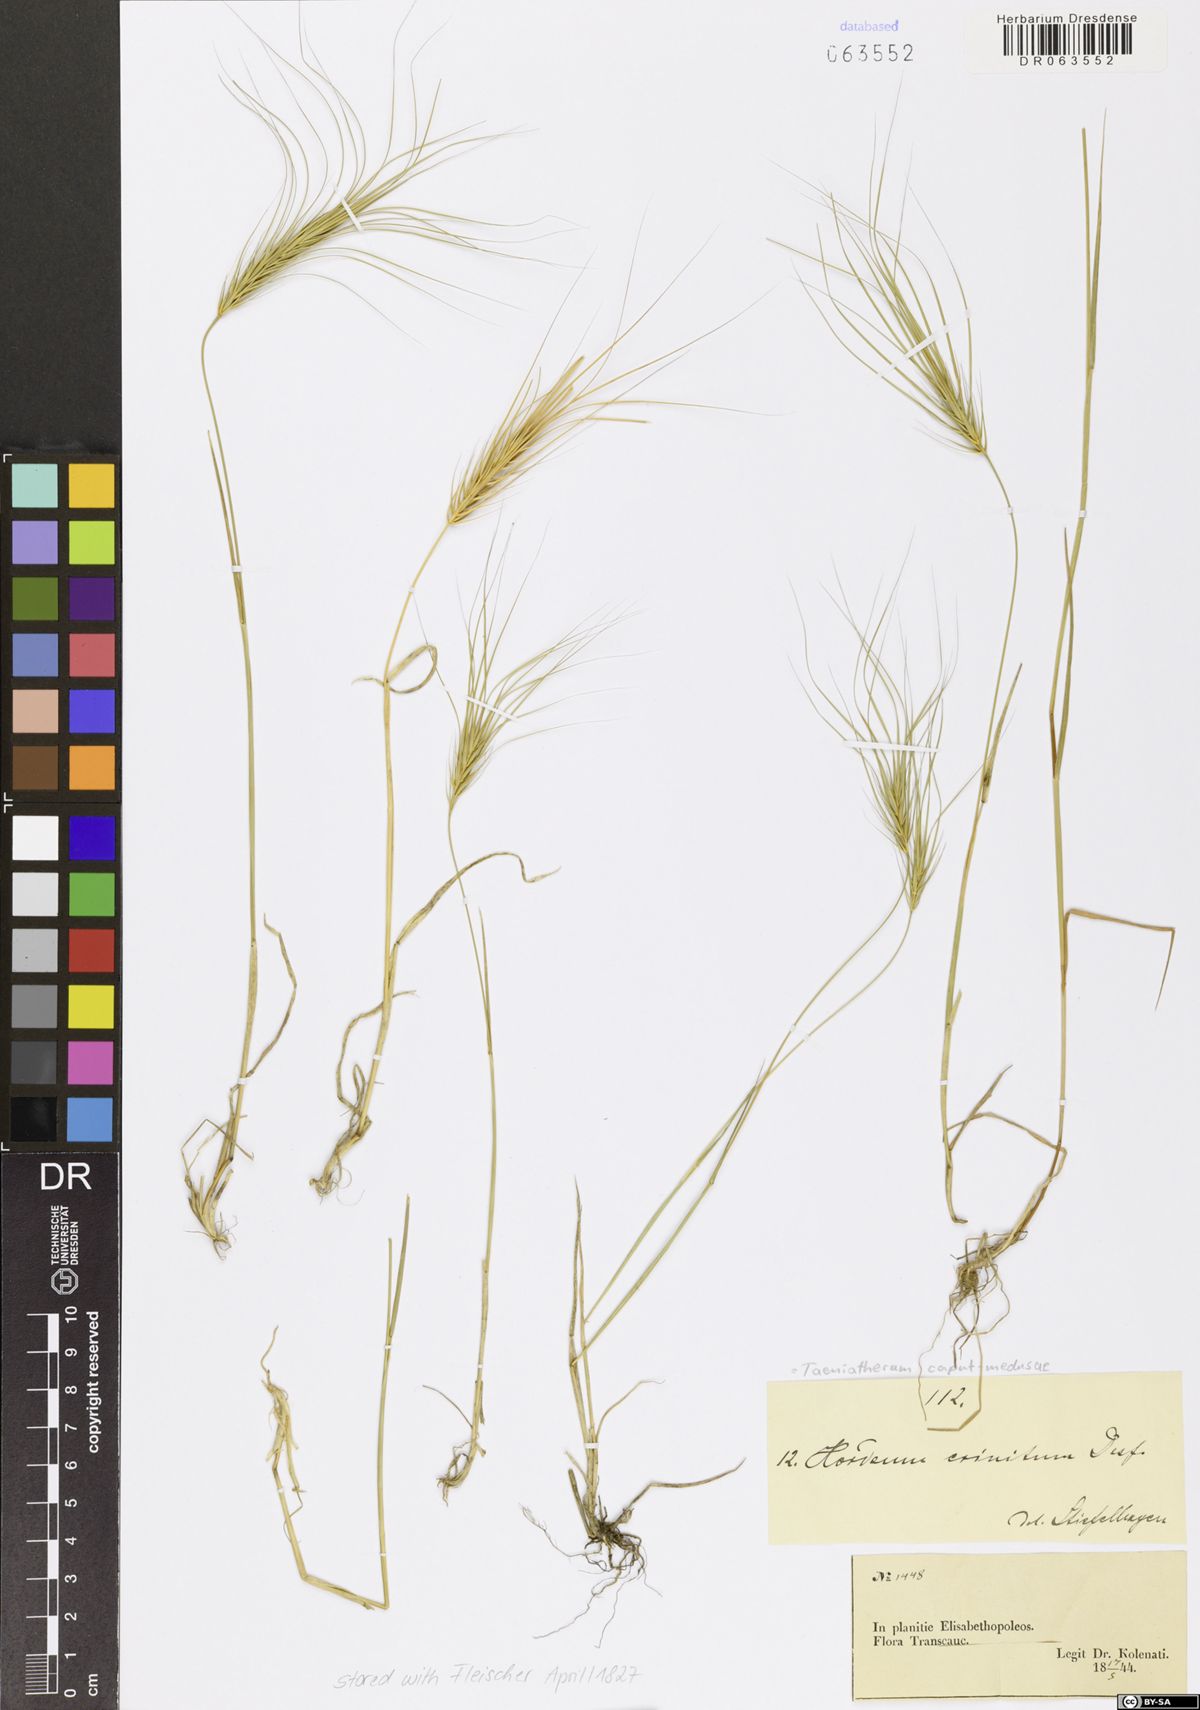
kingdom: Plantae
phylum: Tracheophyta
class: Liliopsida
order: Poales
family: Poaceae
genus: Taeniatherum
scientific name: Taeniatherum caput-medusae
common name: Medusahead
